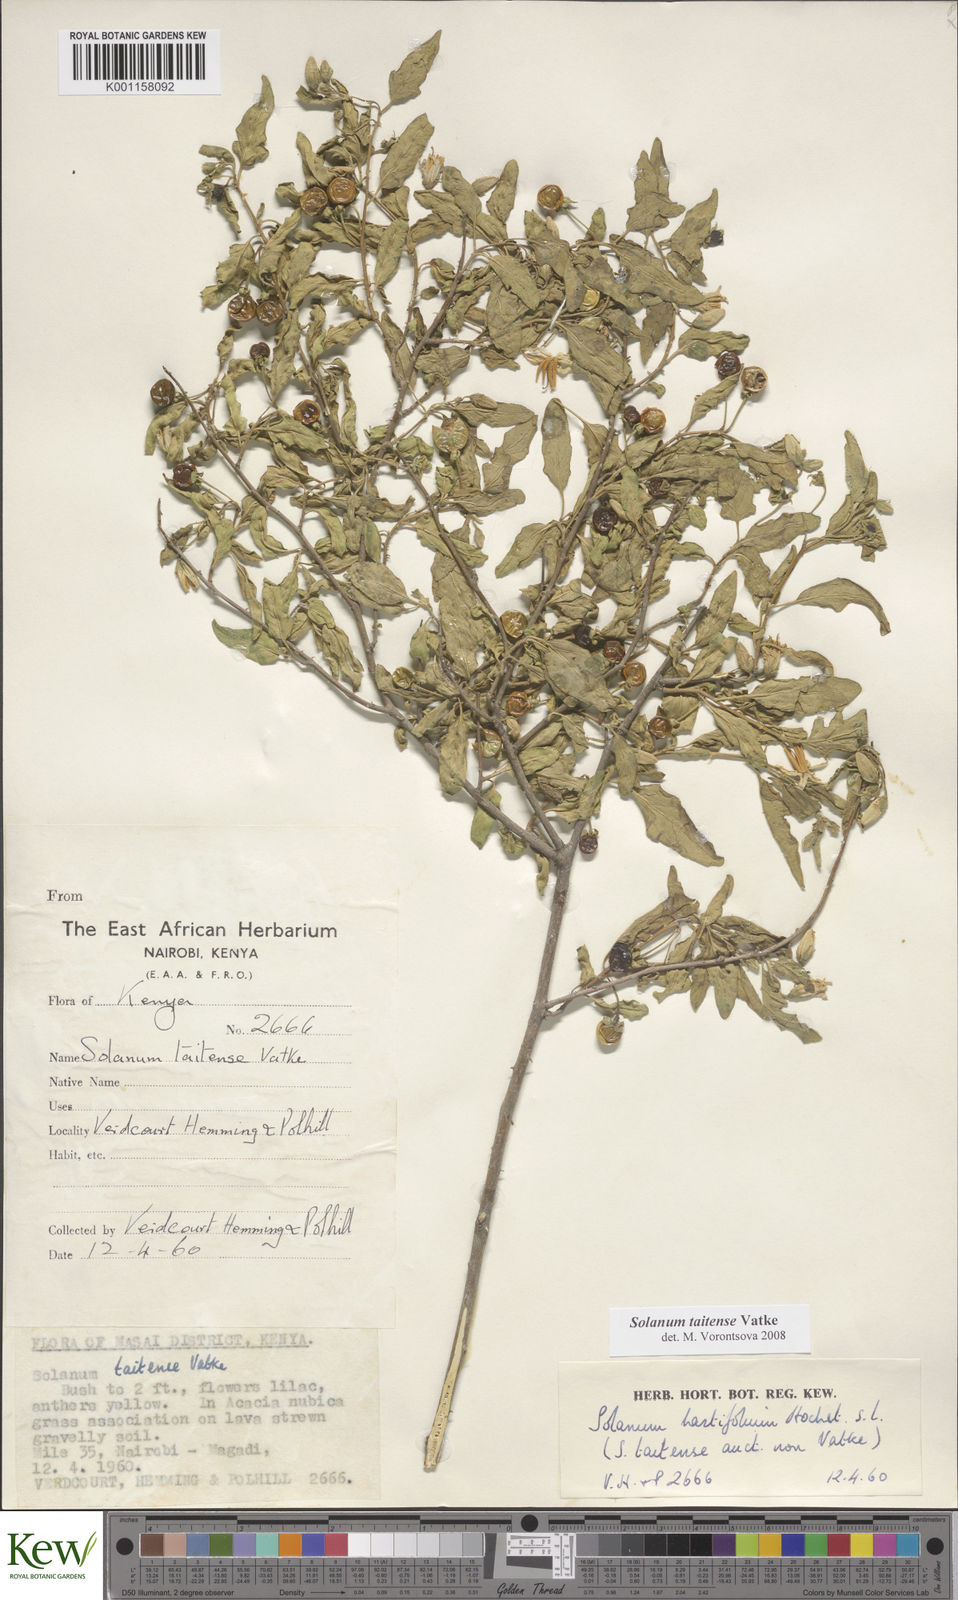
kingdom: Plantae
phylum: Tracheophyta
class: Magnoliopsida
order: Solanales
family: Solanaceae
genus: Solanum
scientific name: Solanum taitense
